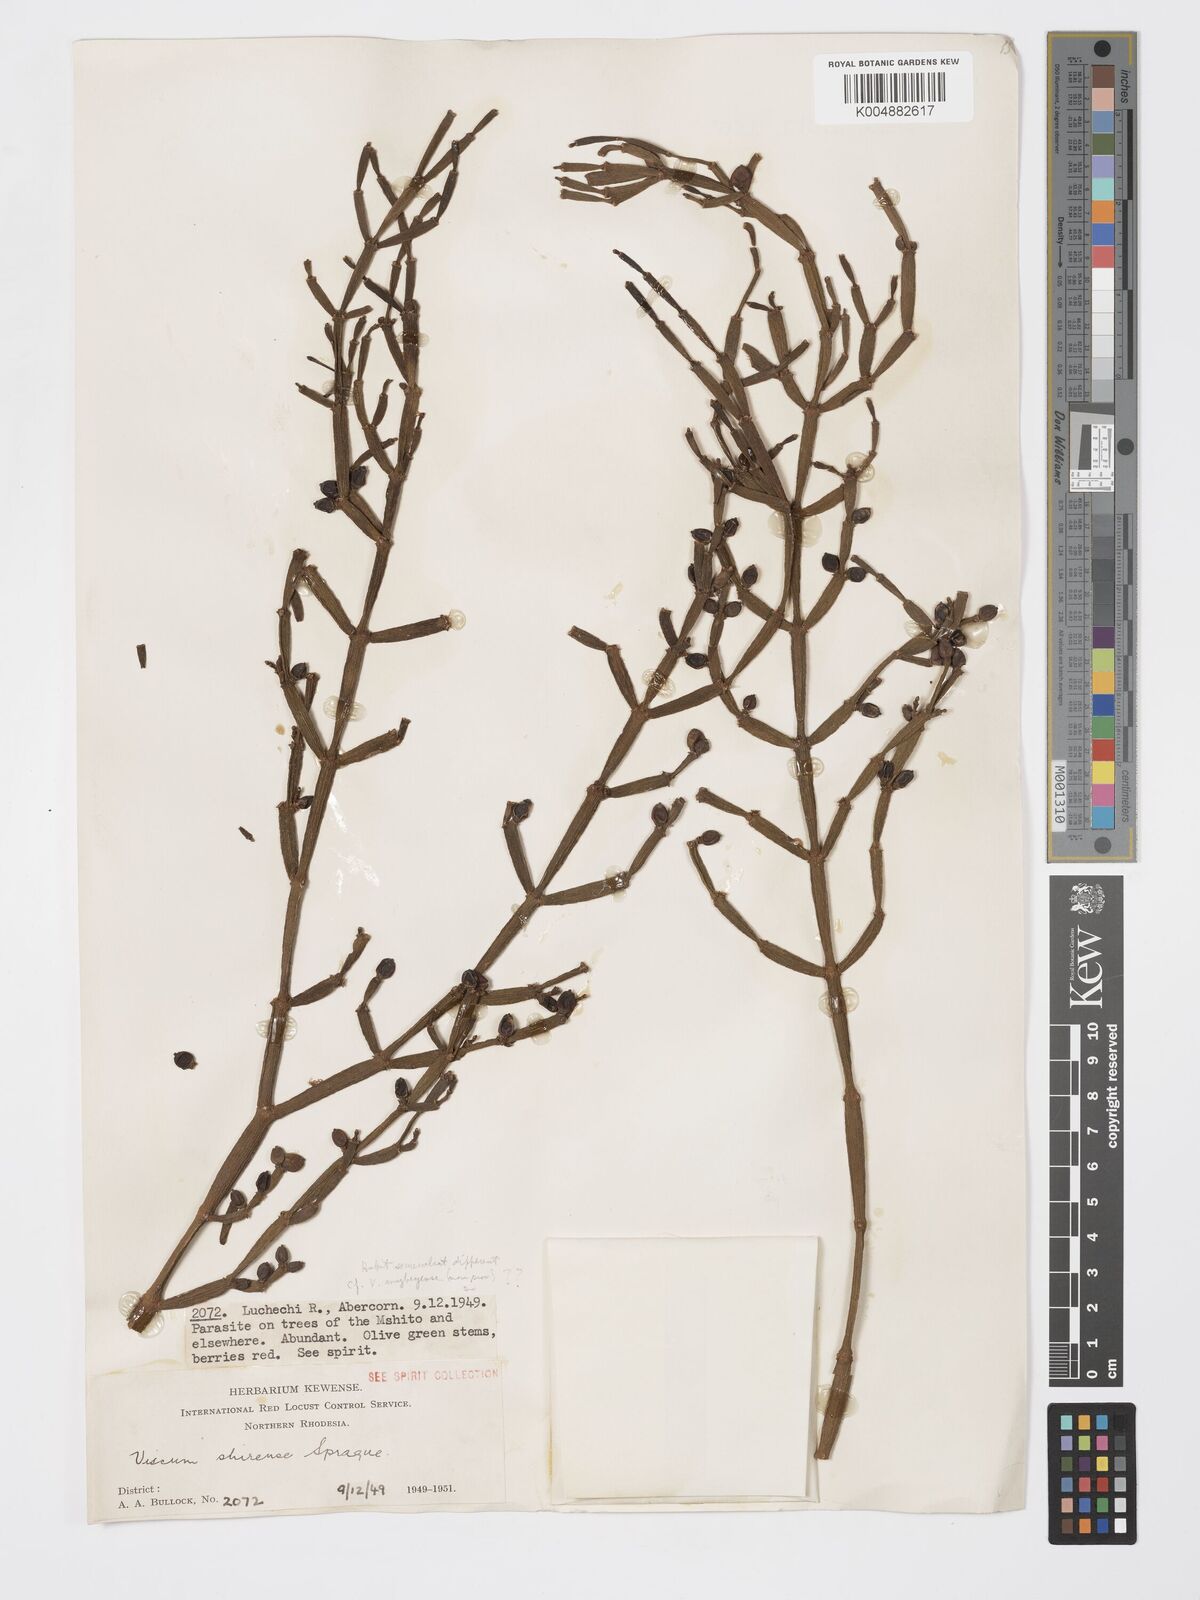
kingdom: Plantae
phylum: Tracheophyta
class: Magnoliopsida
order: Santalales
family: Viscaceae
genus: Viscum
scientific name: Viscum junodii
